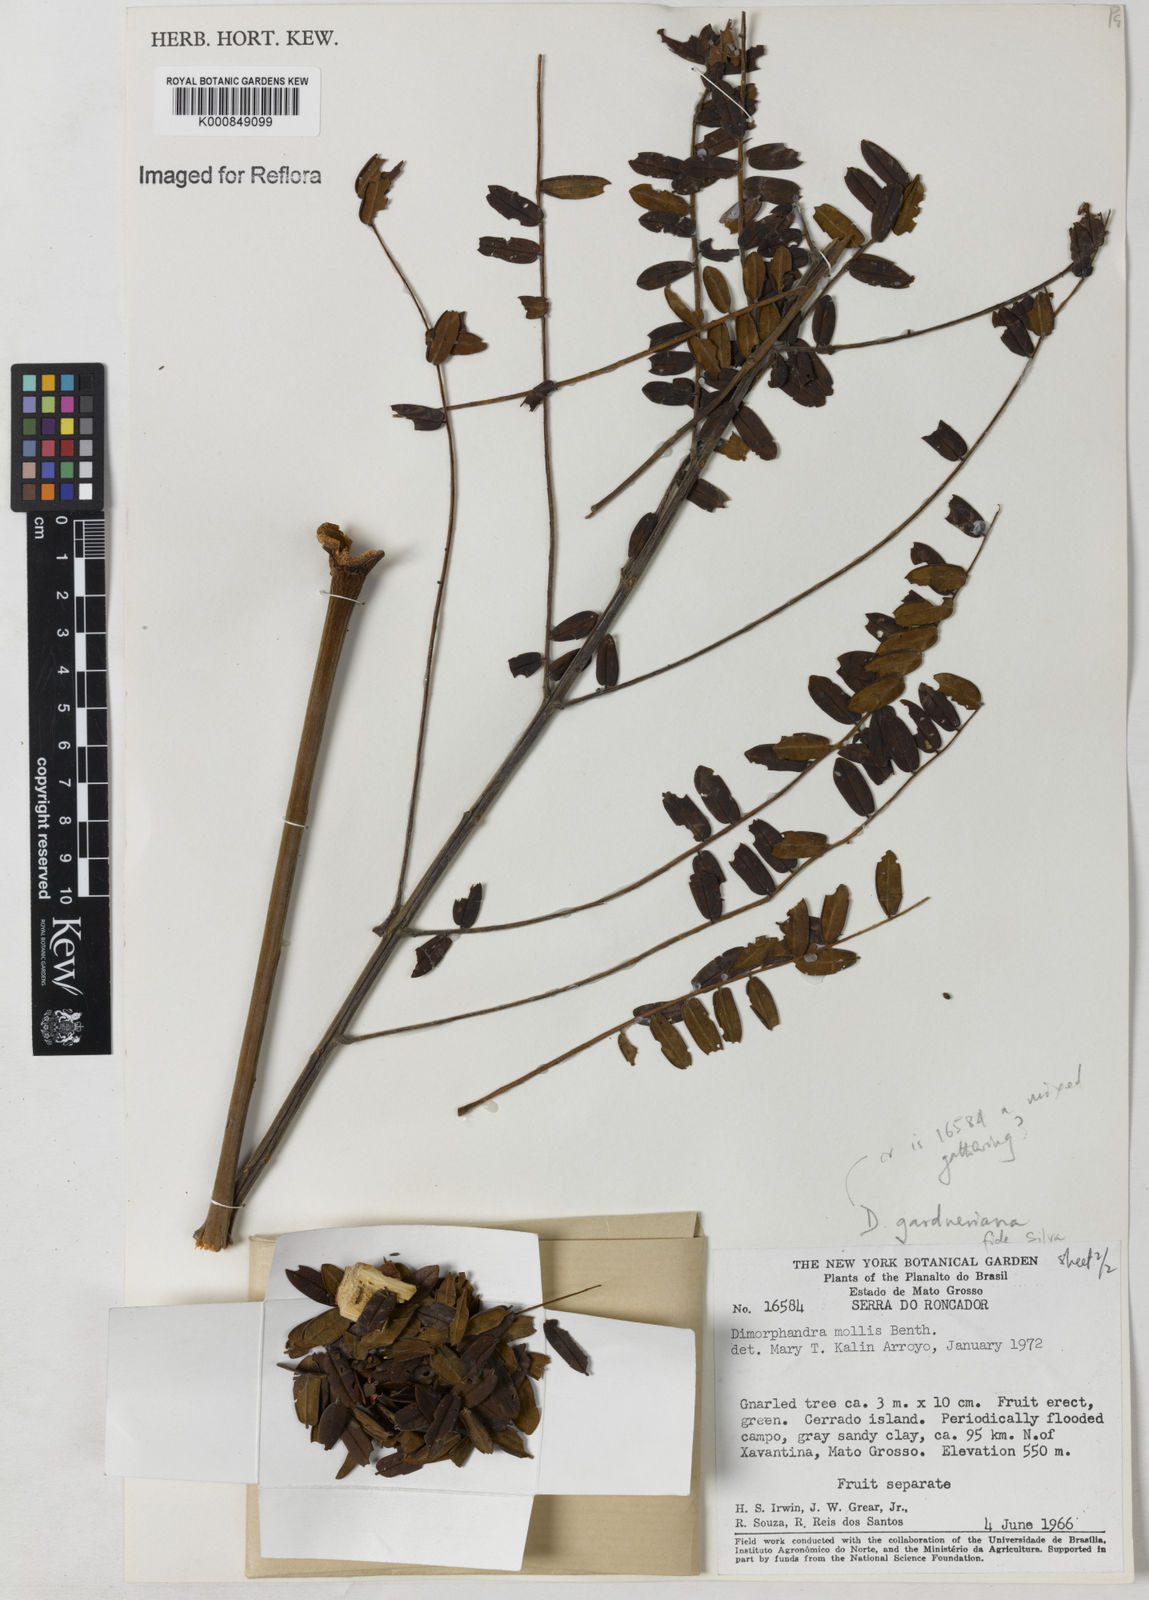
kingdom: Plantae
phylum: Tracheophyta
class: Magnoliopsida
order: Fabales
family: Fabaceae
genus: Dimorphandra
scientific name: Dimorphandra gardneriana
